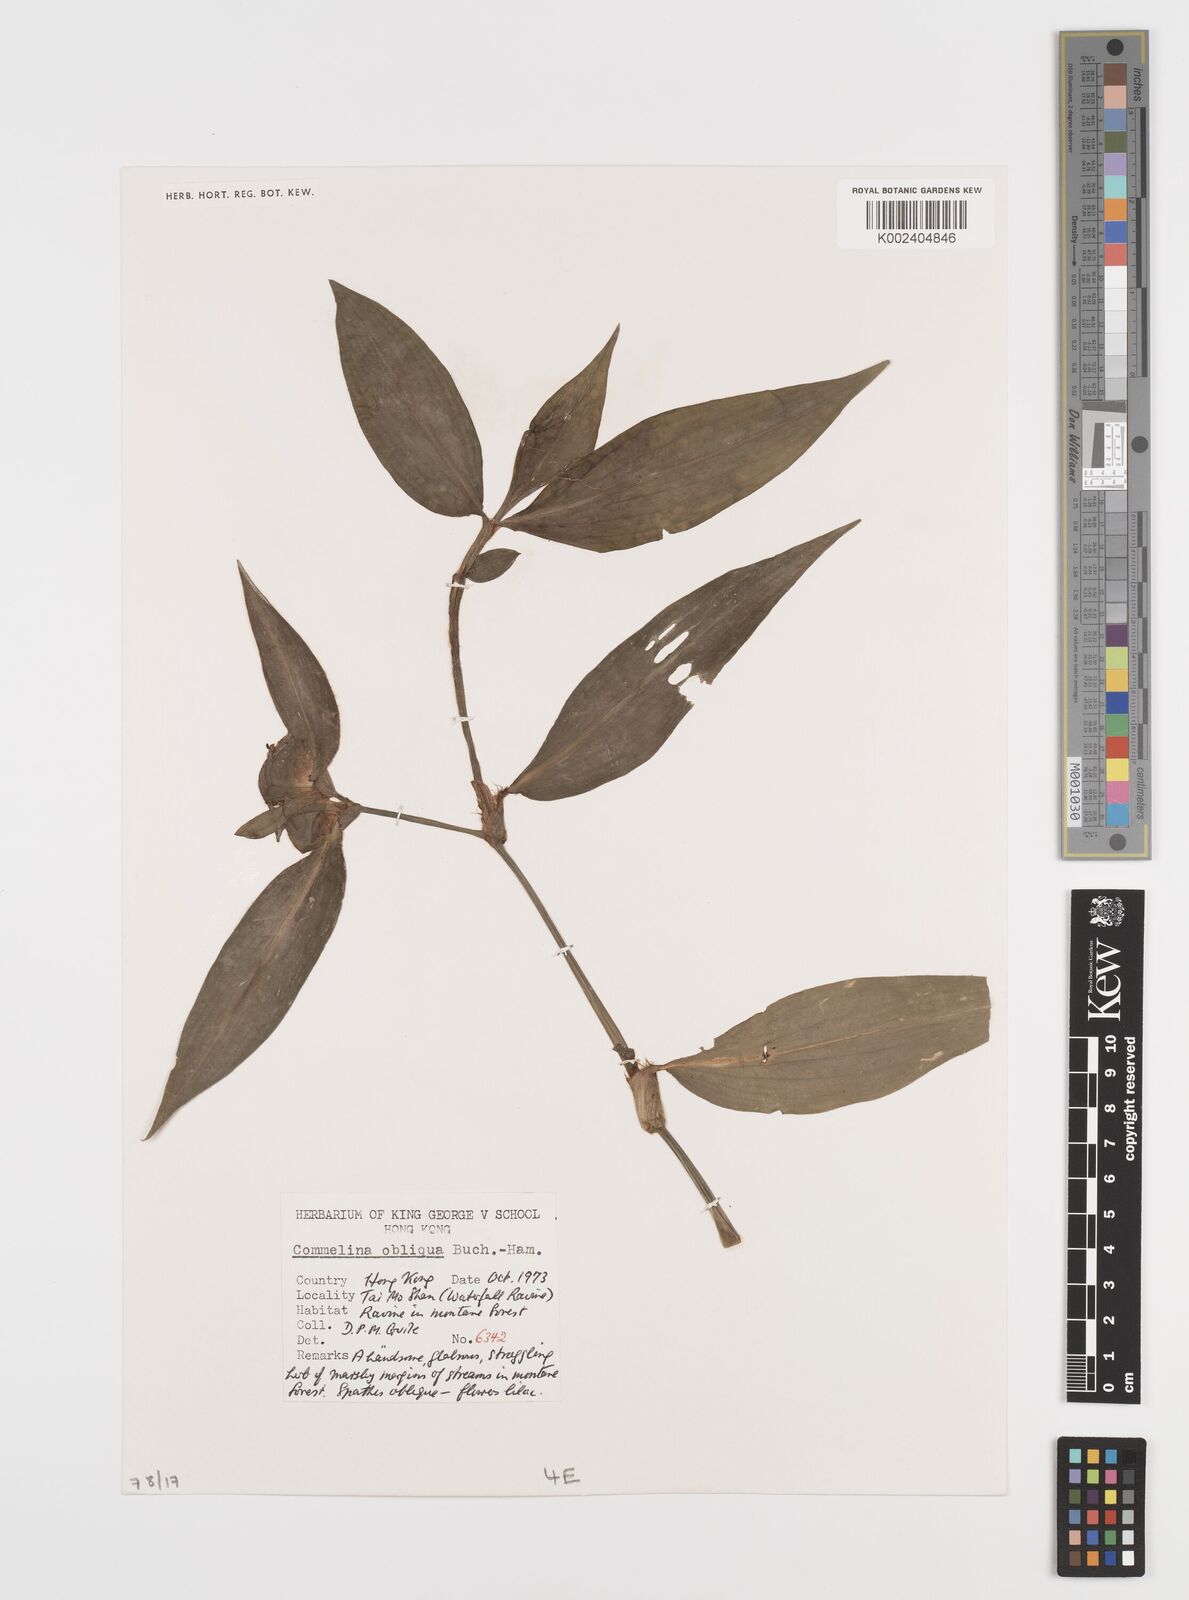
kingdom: Plantae
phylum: Tracheophyta
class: Liliopsida
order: Commelinales
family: Commelinaceae
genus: Commelina
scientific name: Commelina obliqua
